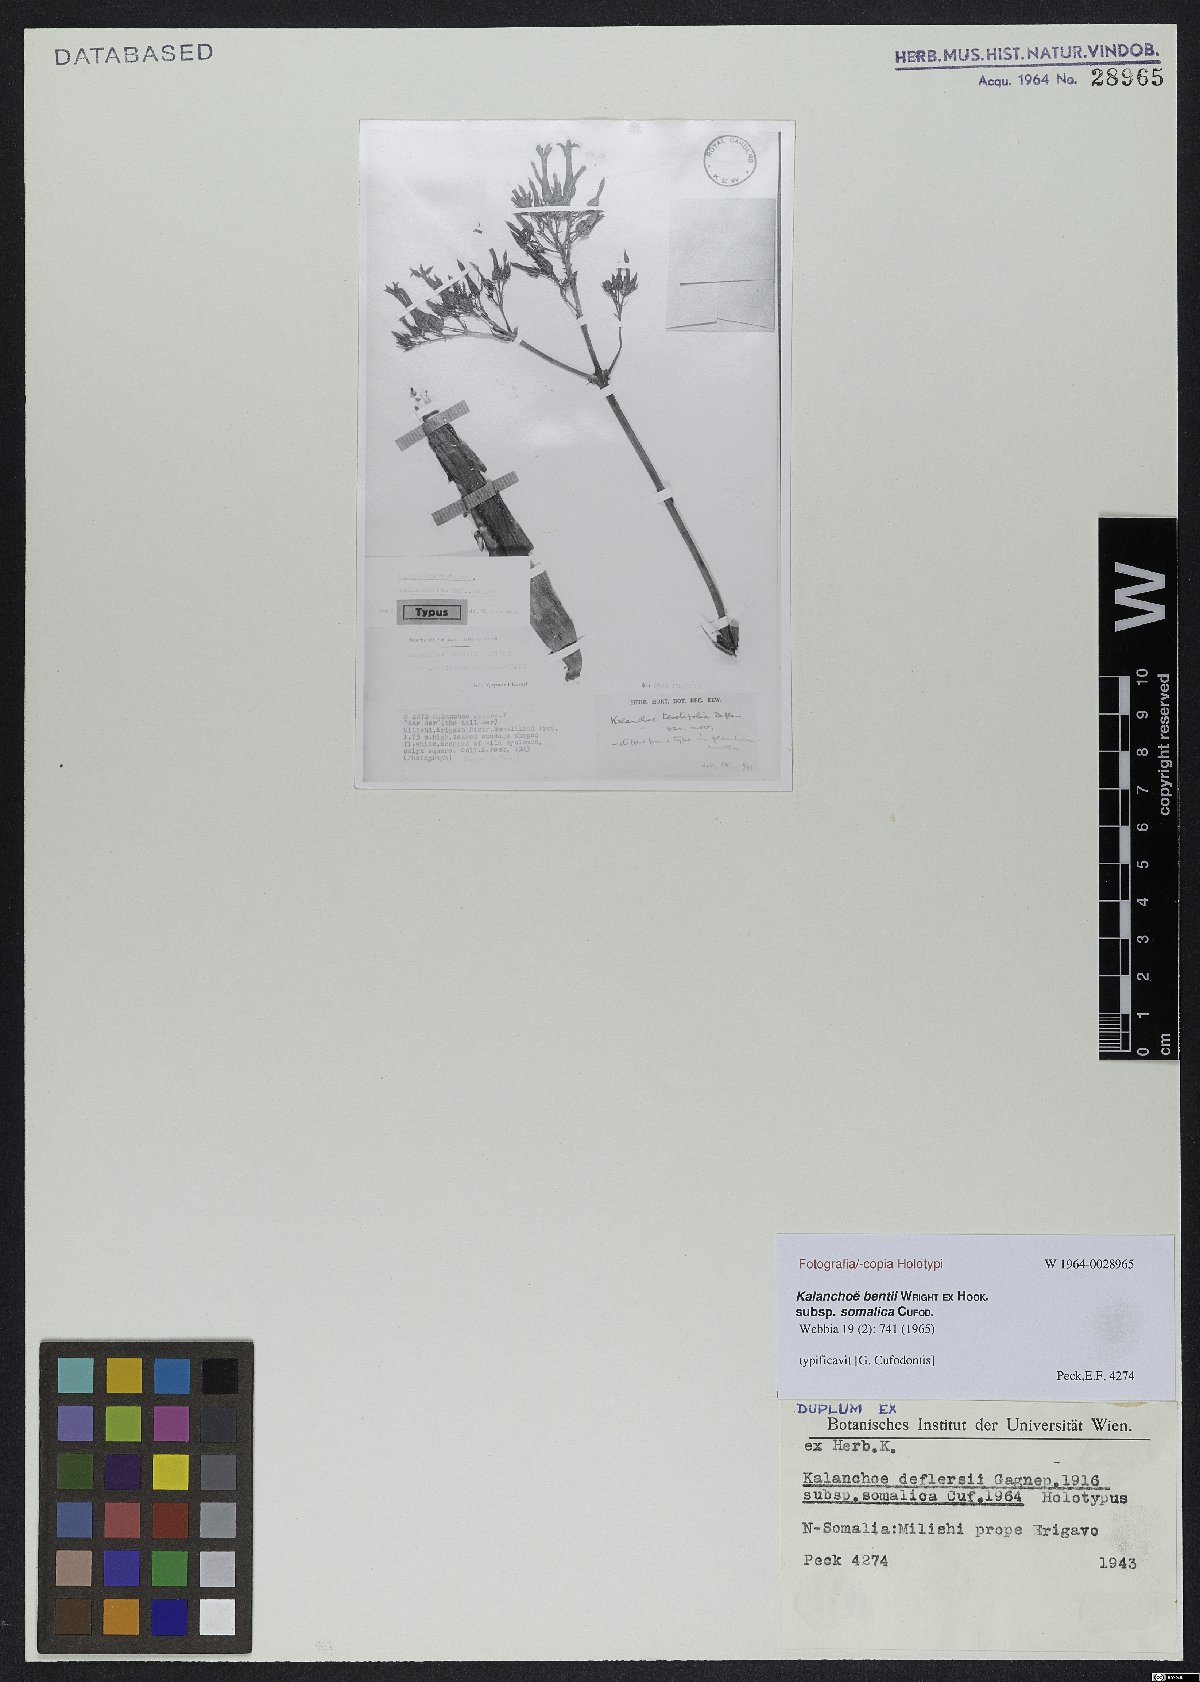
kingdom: Plantae
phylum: Tracheophyta
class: Magnoliopsida
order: Saxifragales
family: Crassulaceae
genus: Kalanchoe
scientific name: Kalanchoe bentii
